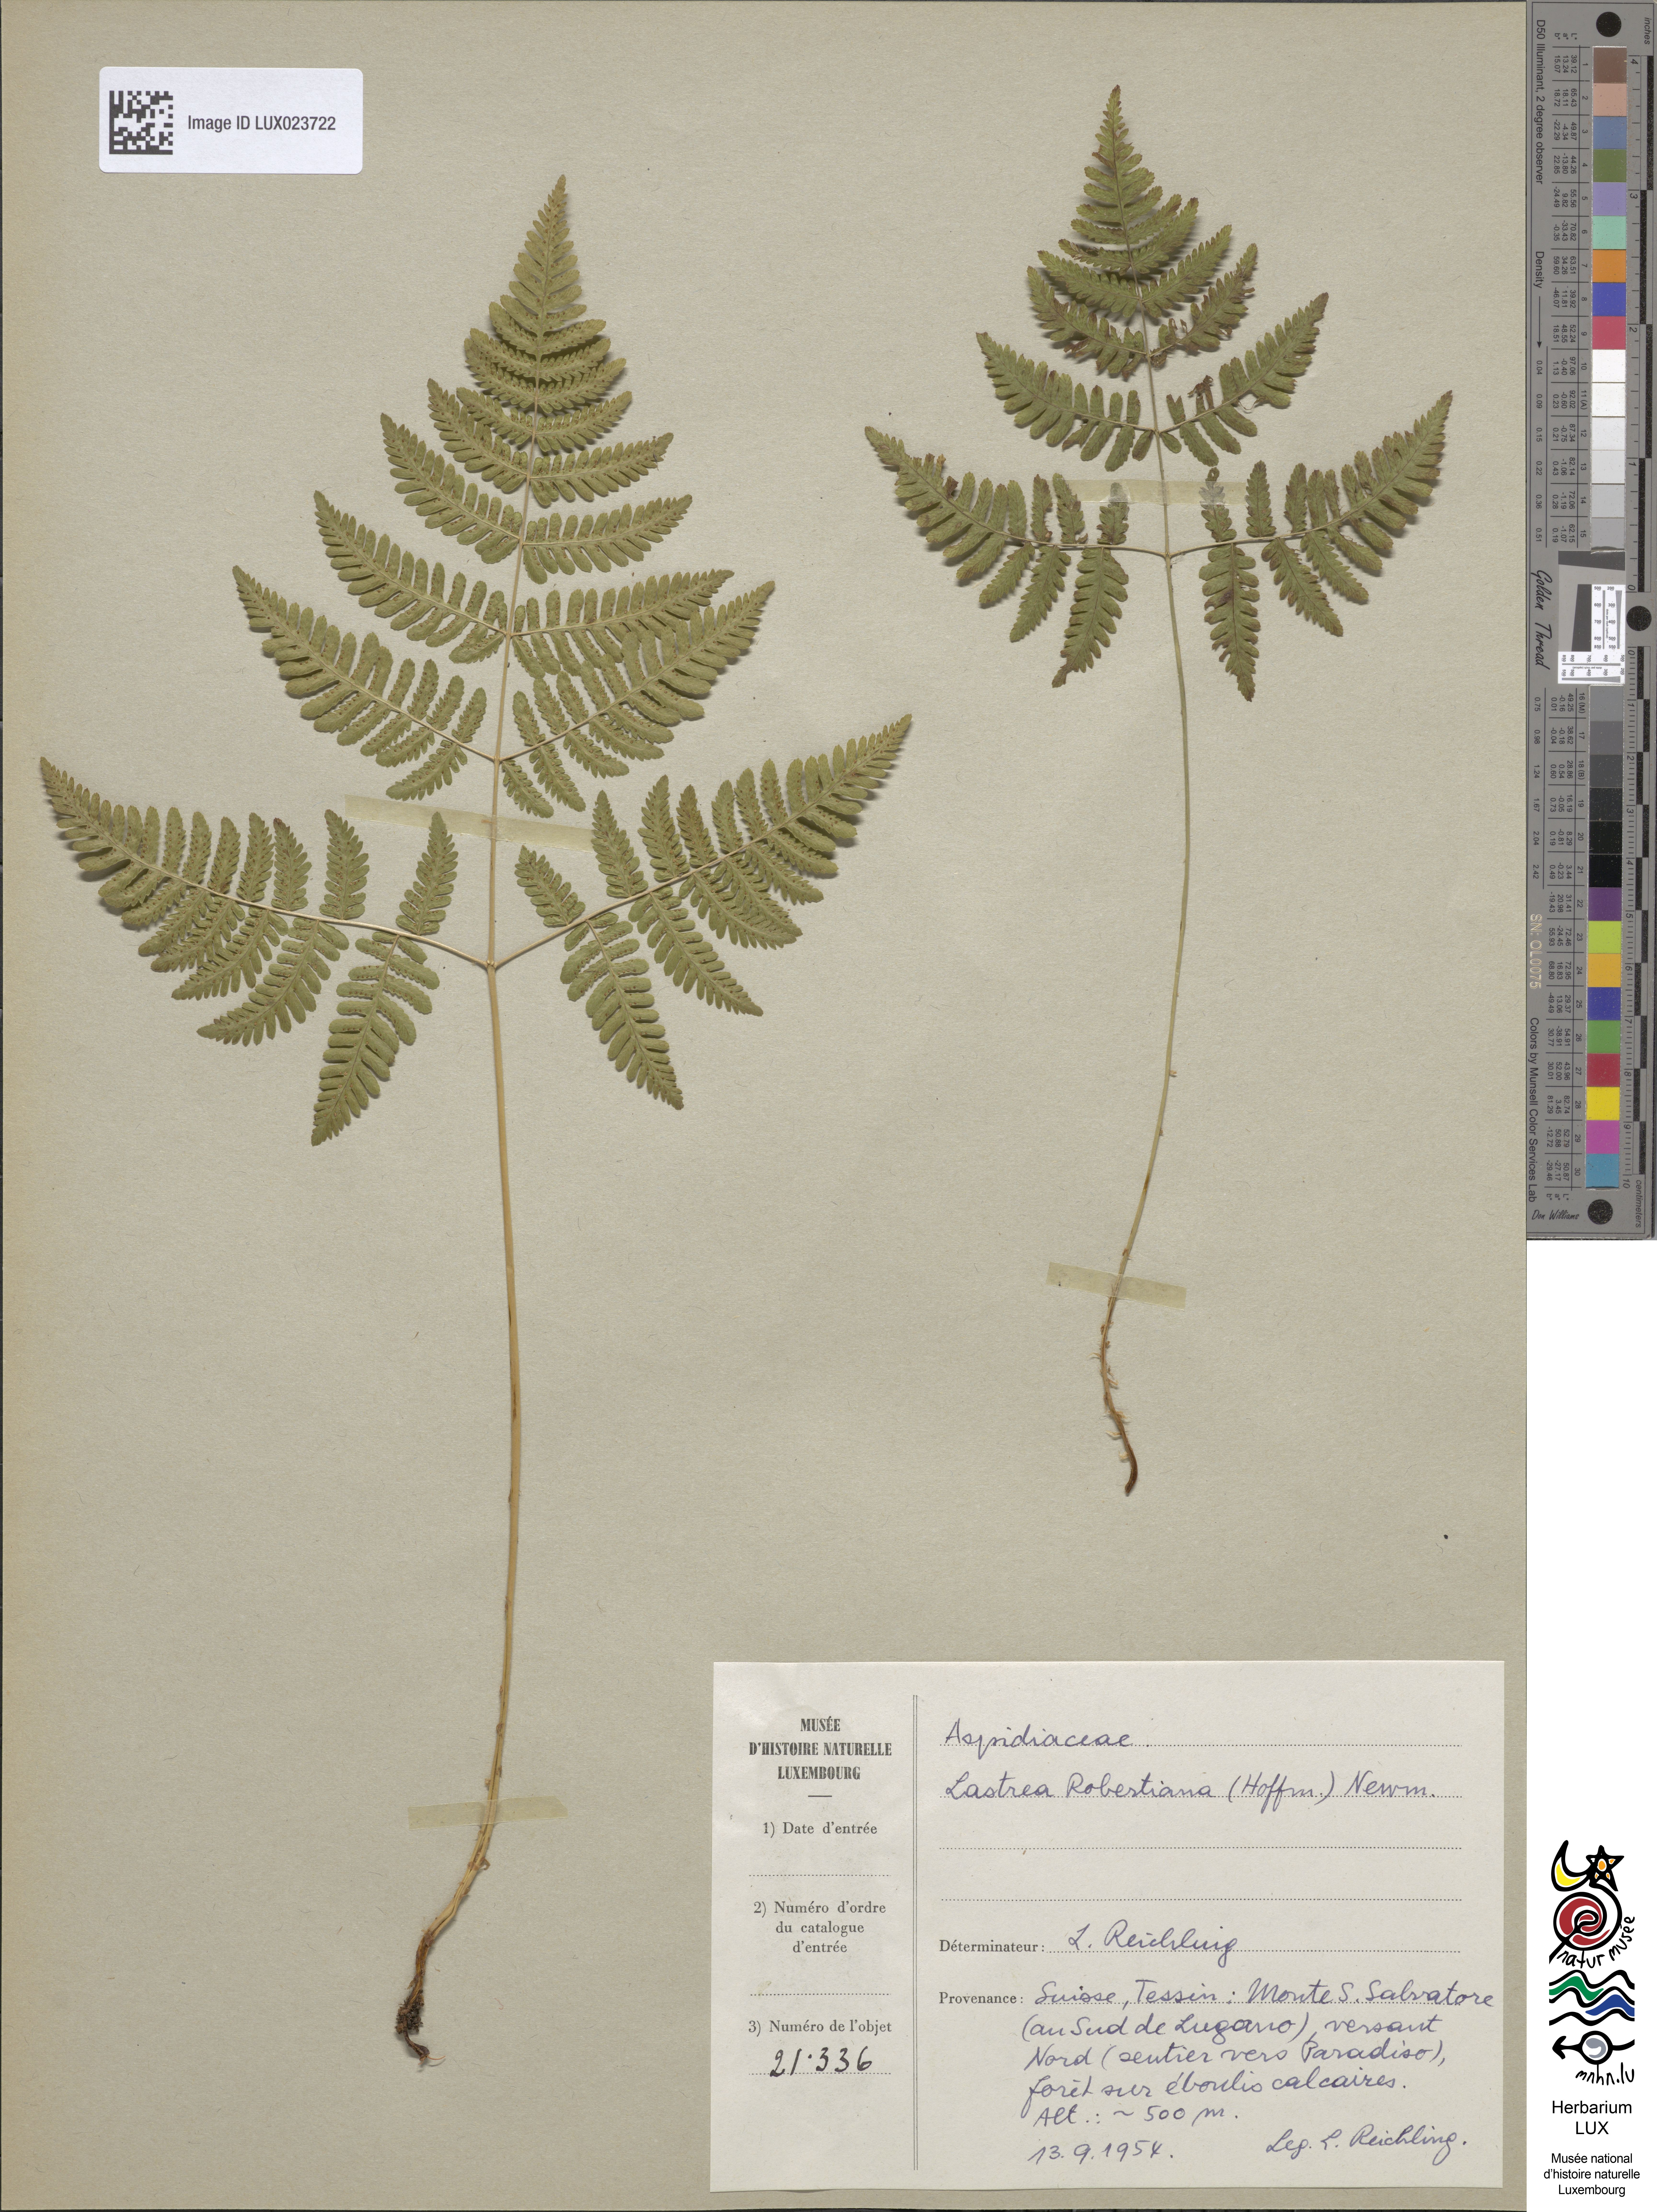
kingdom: Plantae
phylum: Tracheophyta
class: Polypodiopsida
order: Polypodiales
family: Cystopteridaceae
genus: Gymnocarpium
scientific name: Gymnocarpium robertianum
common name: Limestone fern
